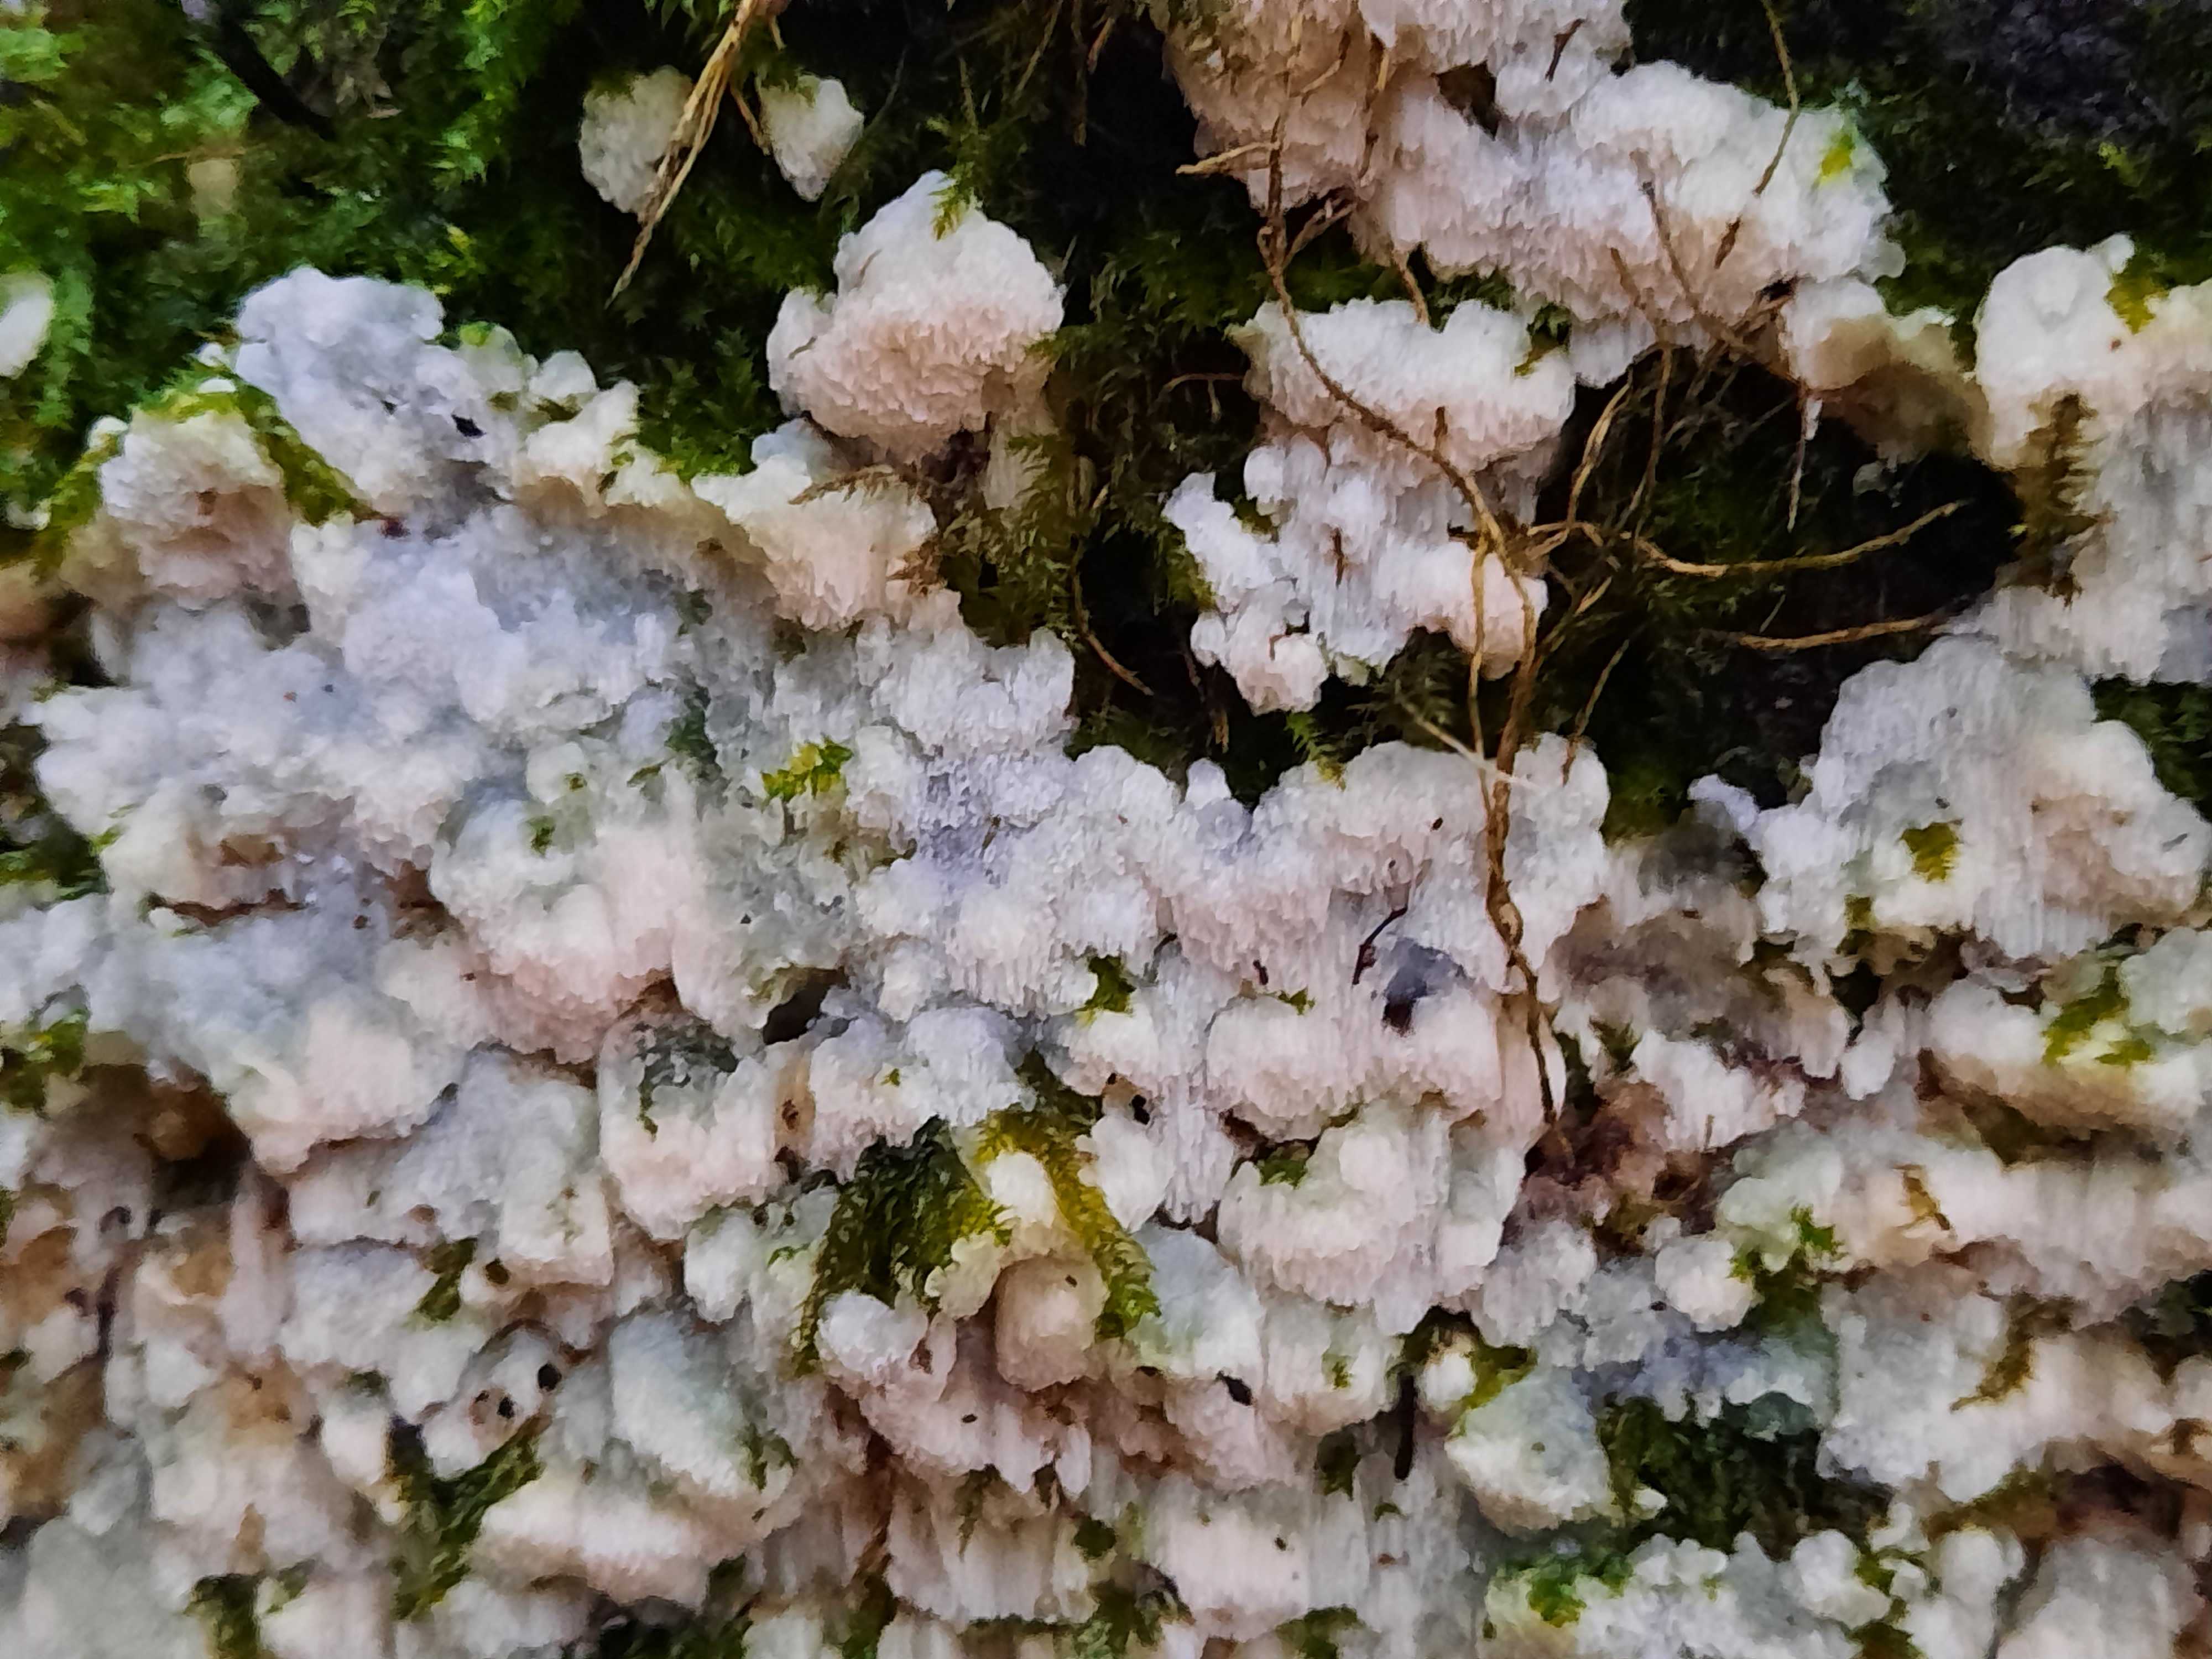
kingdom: Fungi
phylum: Basidiomycota
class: Agaricomycetes
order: Polyporales
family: Meruliaceae
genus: Physisporinus
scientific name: Physisporinus vitreus
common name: mastesvamp
